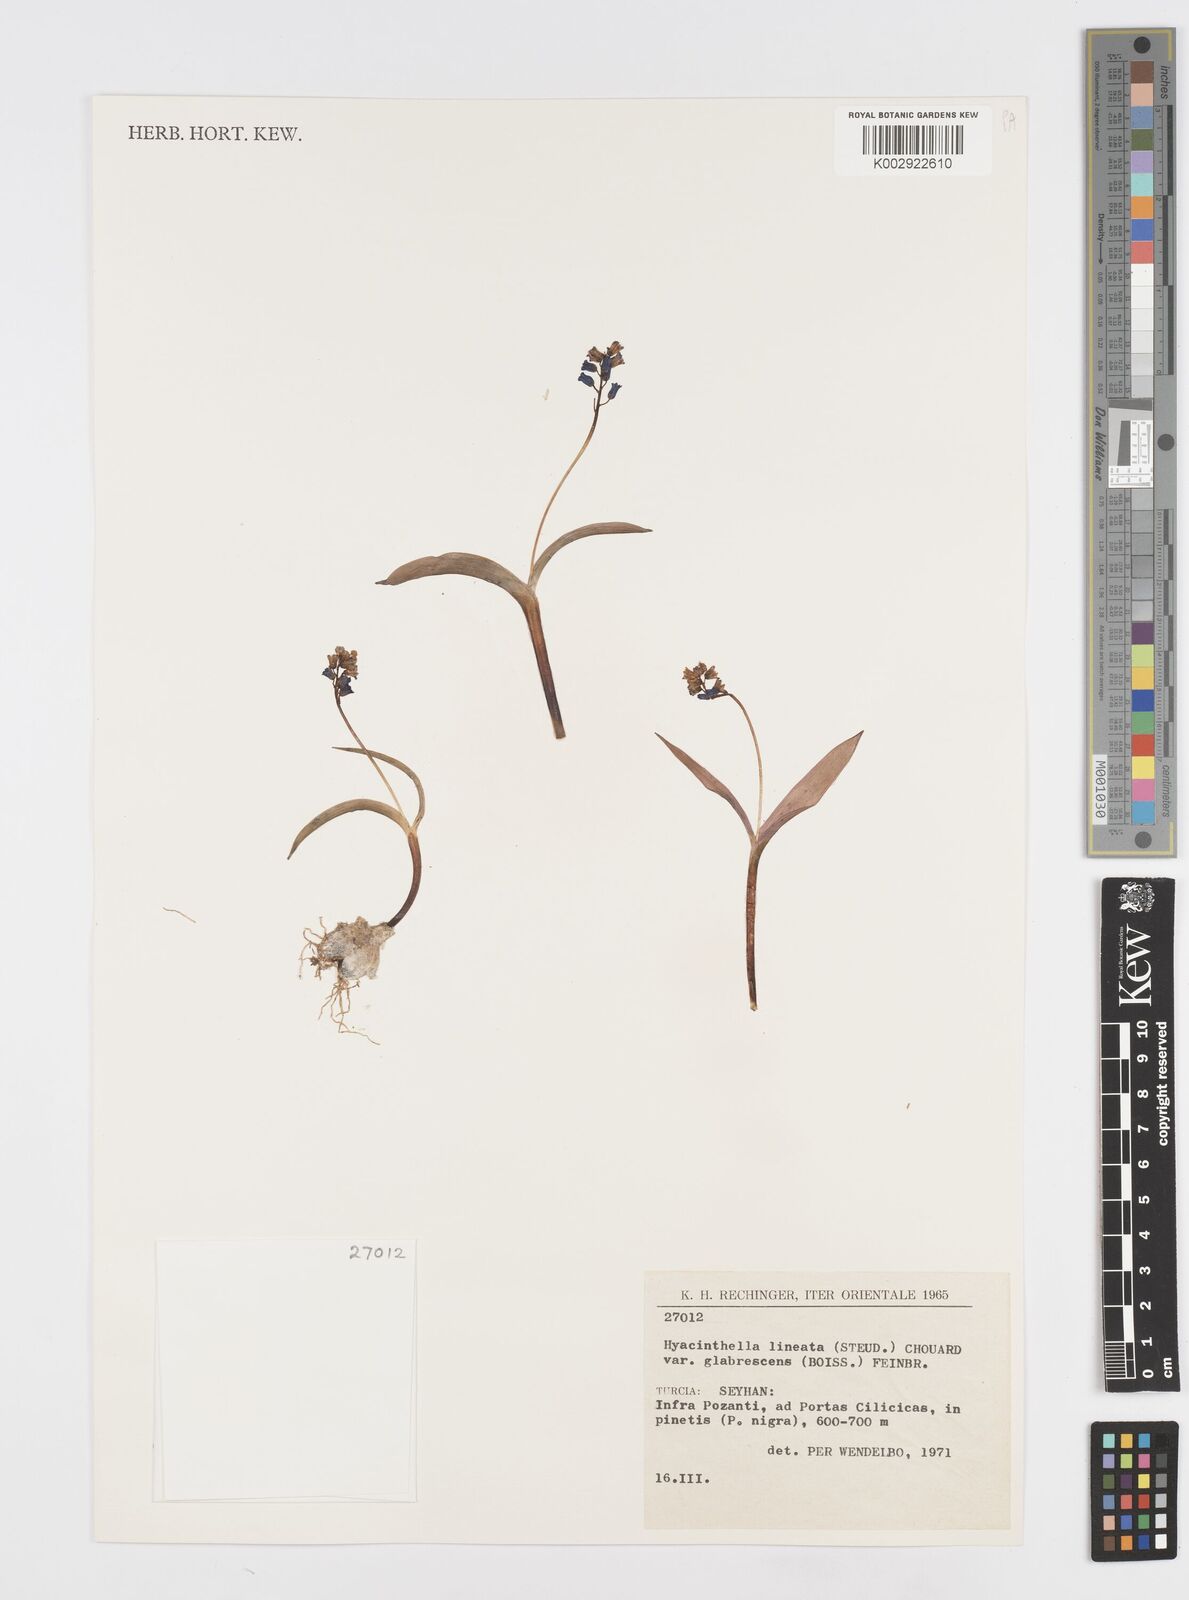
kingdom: Plantae
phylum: Tracheophyta
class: Liliopsida
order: Asparagales
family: Asparagaceae
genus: Hyacinthella
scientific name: Hyacinthella glabrescens
